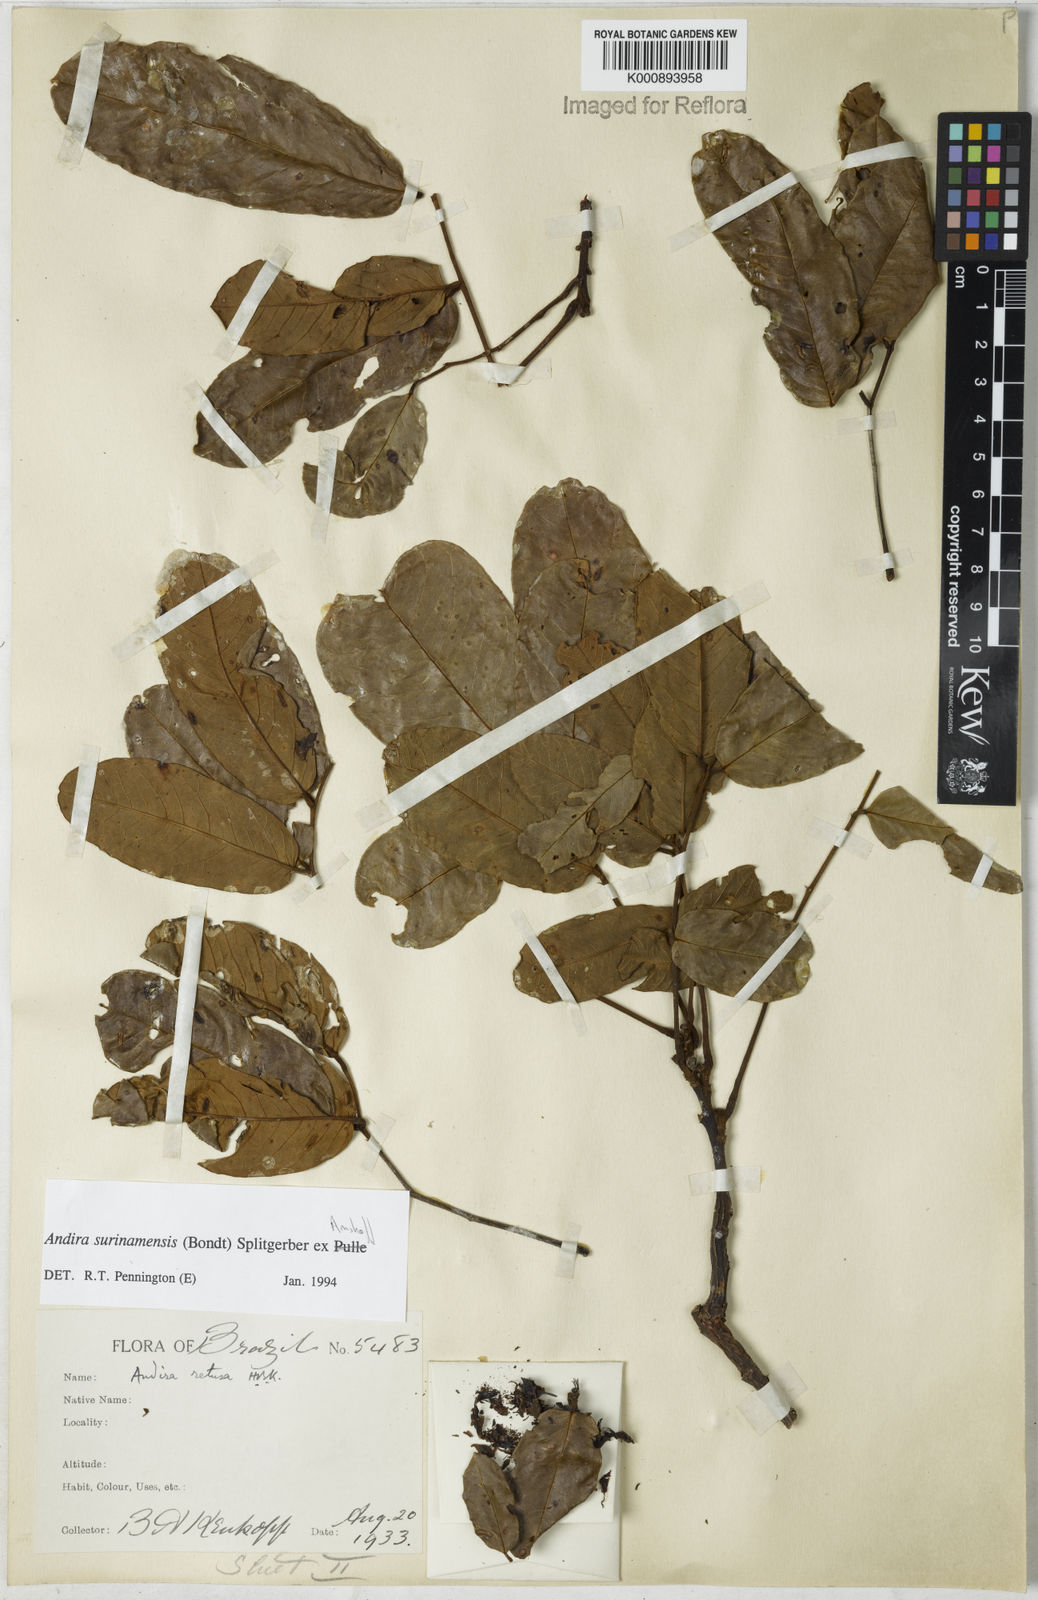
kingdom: Plantae
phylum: Tracheophyta
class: Magnoliopsida
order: Fabales
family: Fabaceae
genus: Andira
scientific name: Andira
